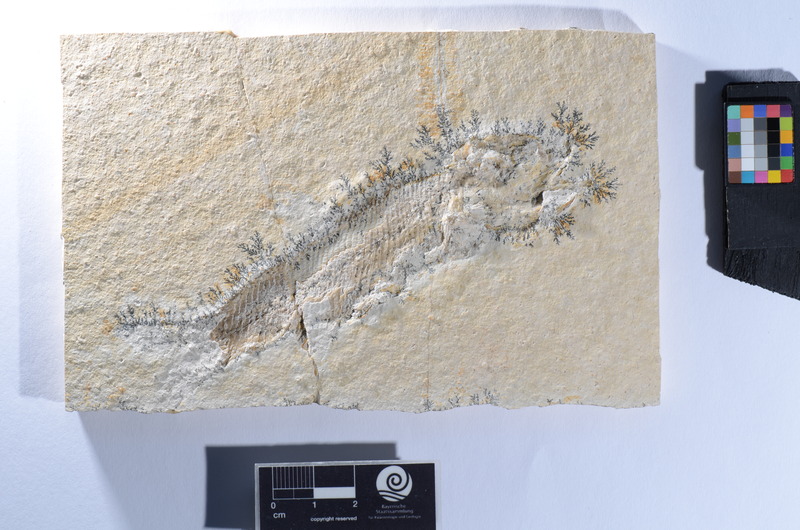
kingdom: Animalia
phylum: Chordata
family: Ophiopsiellidae
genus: Ophiopsiella
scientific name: Ophiopsiella attenuata
